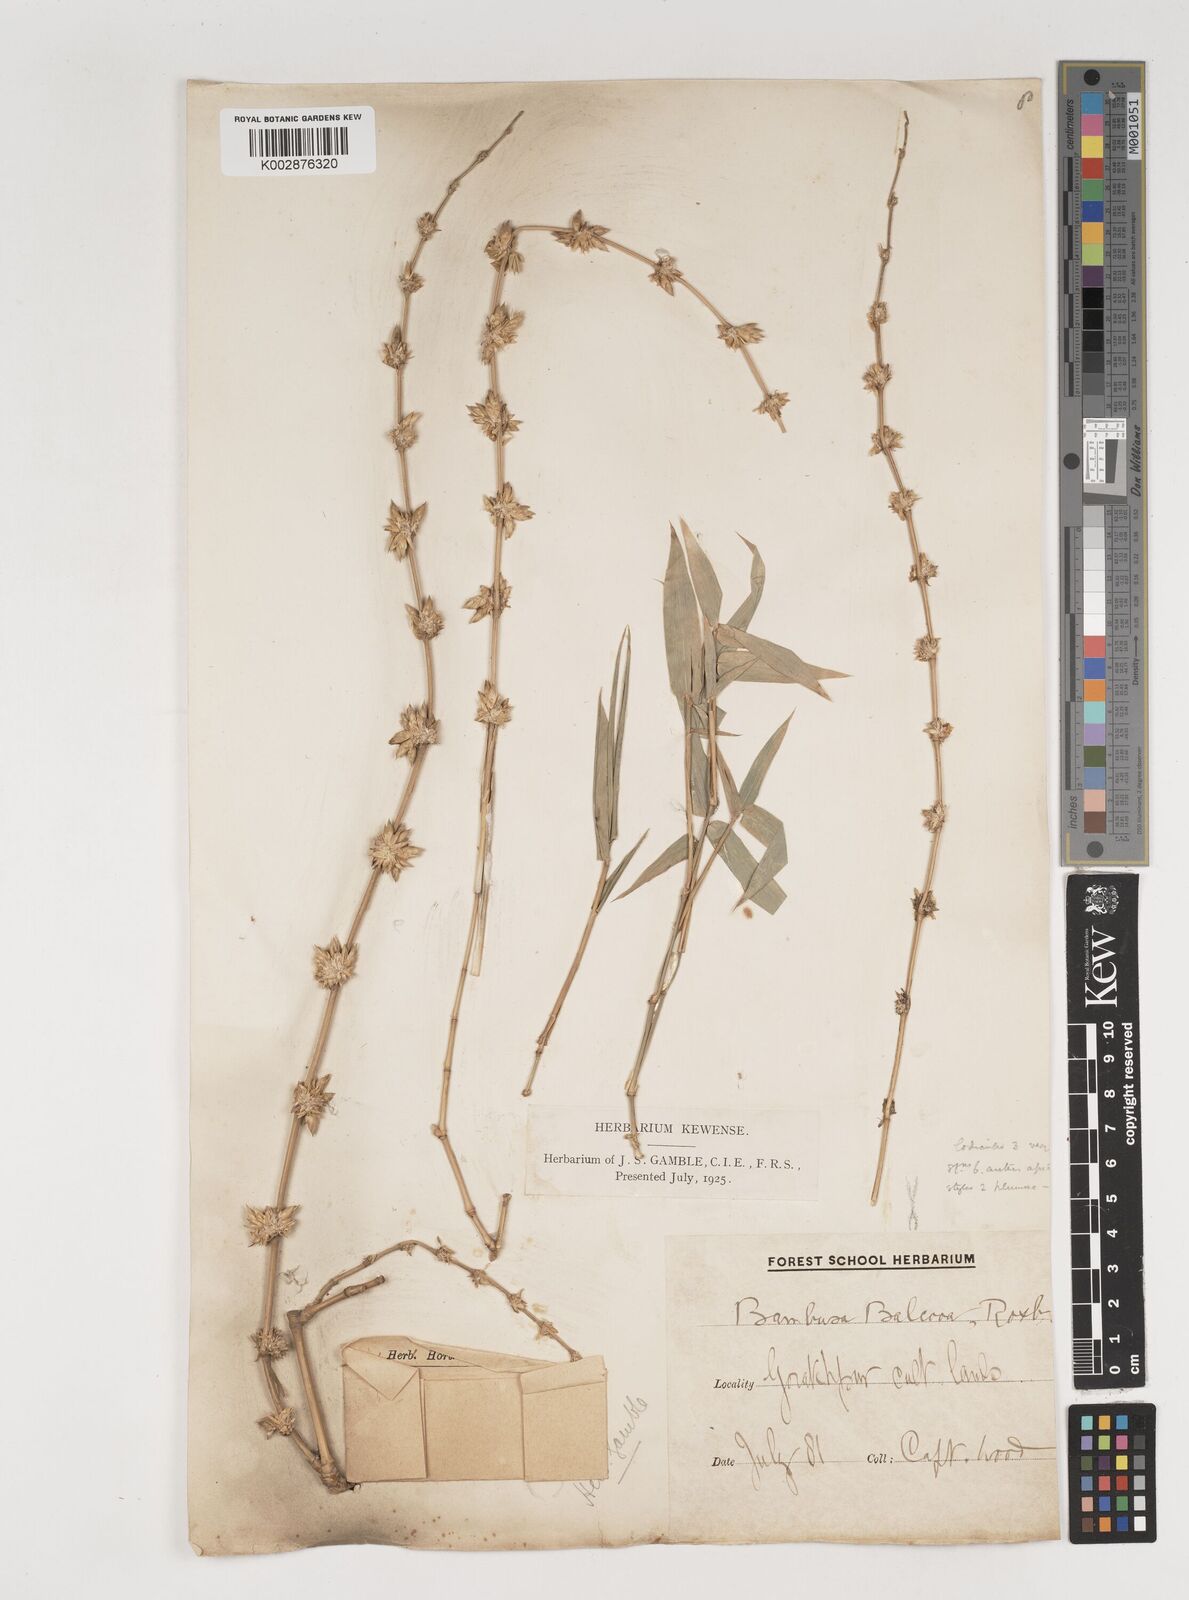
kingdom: Plantae
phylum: Tracheophyta
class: Liliopsida
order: Poales
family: Poaceae
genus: Bambusa
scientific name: Bambusa balcooa
